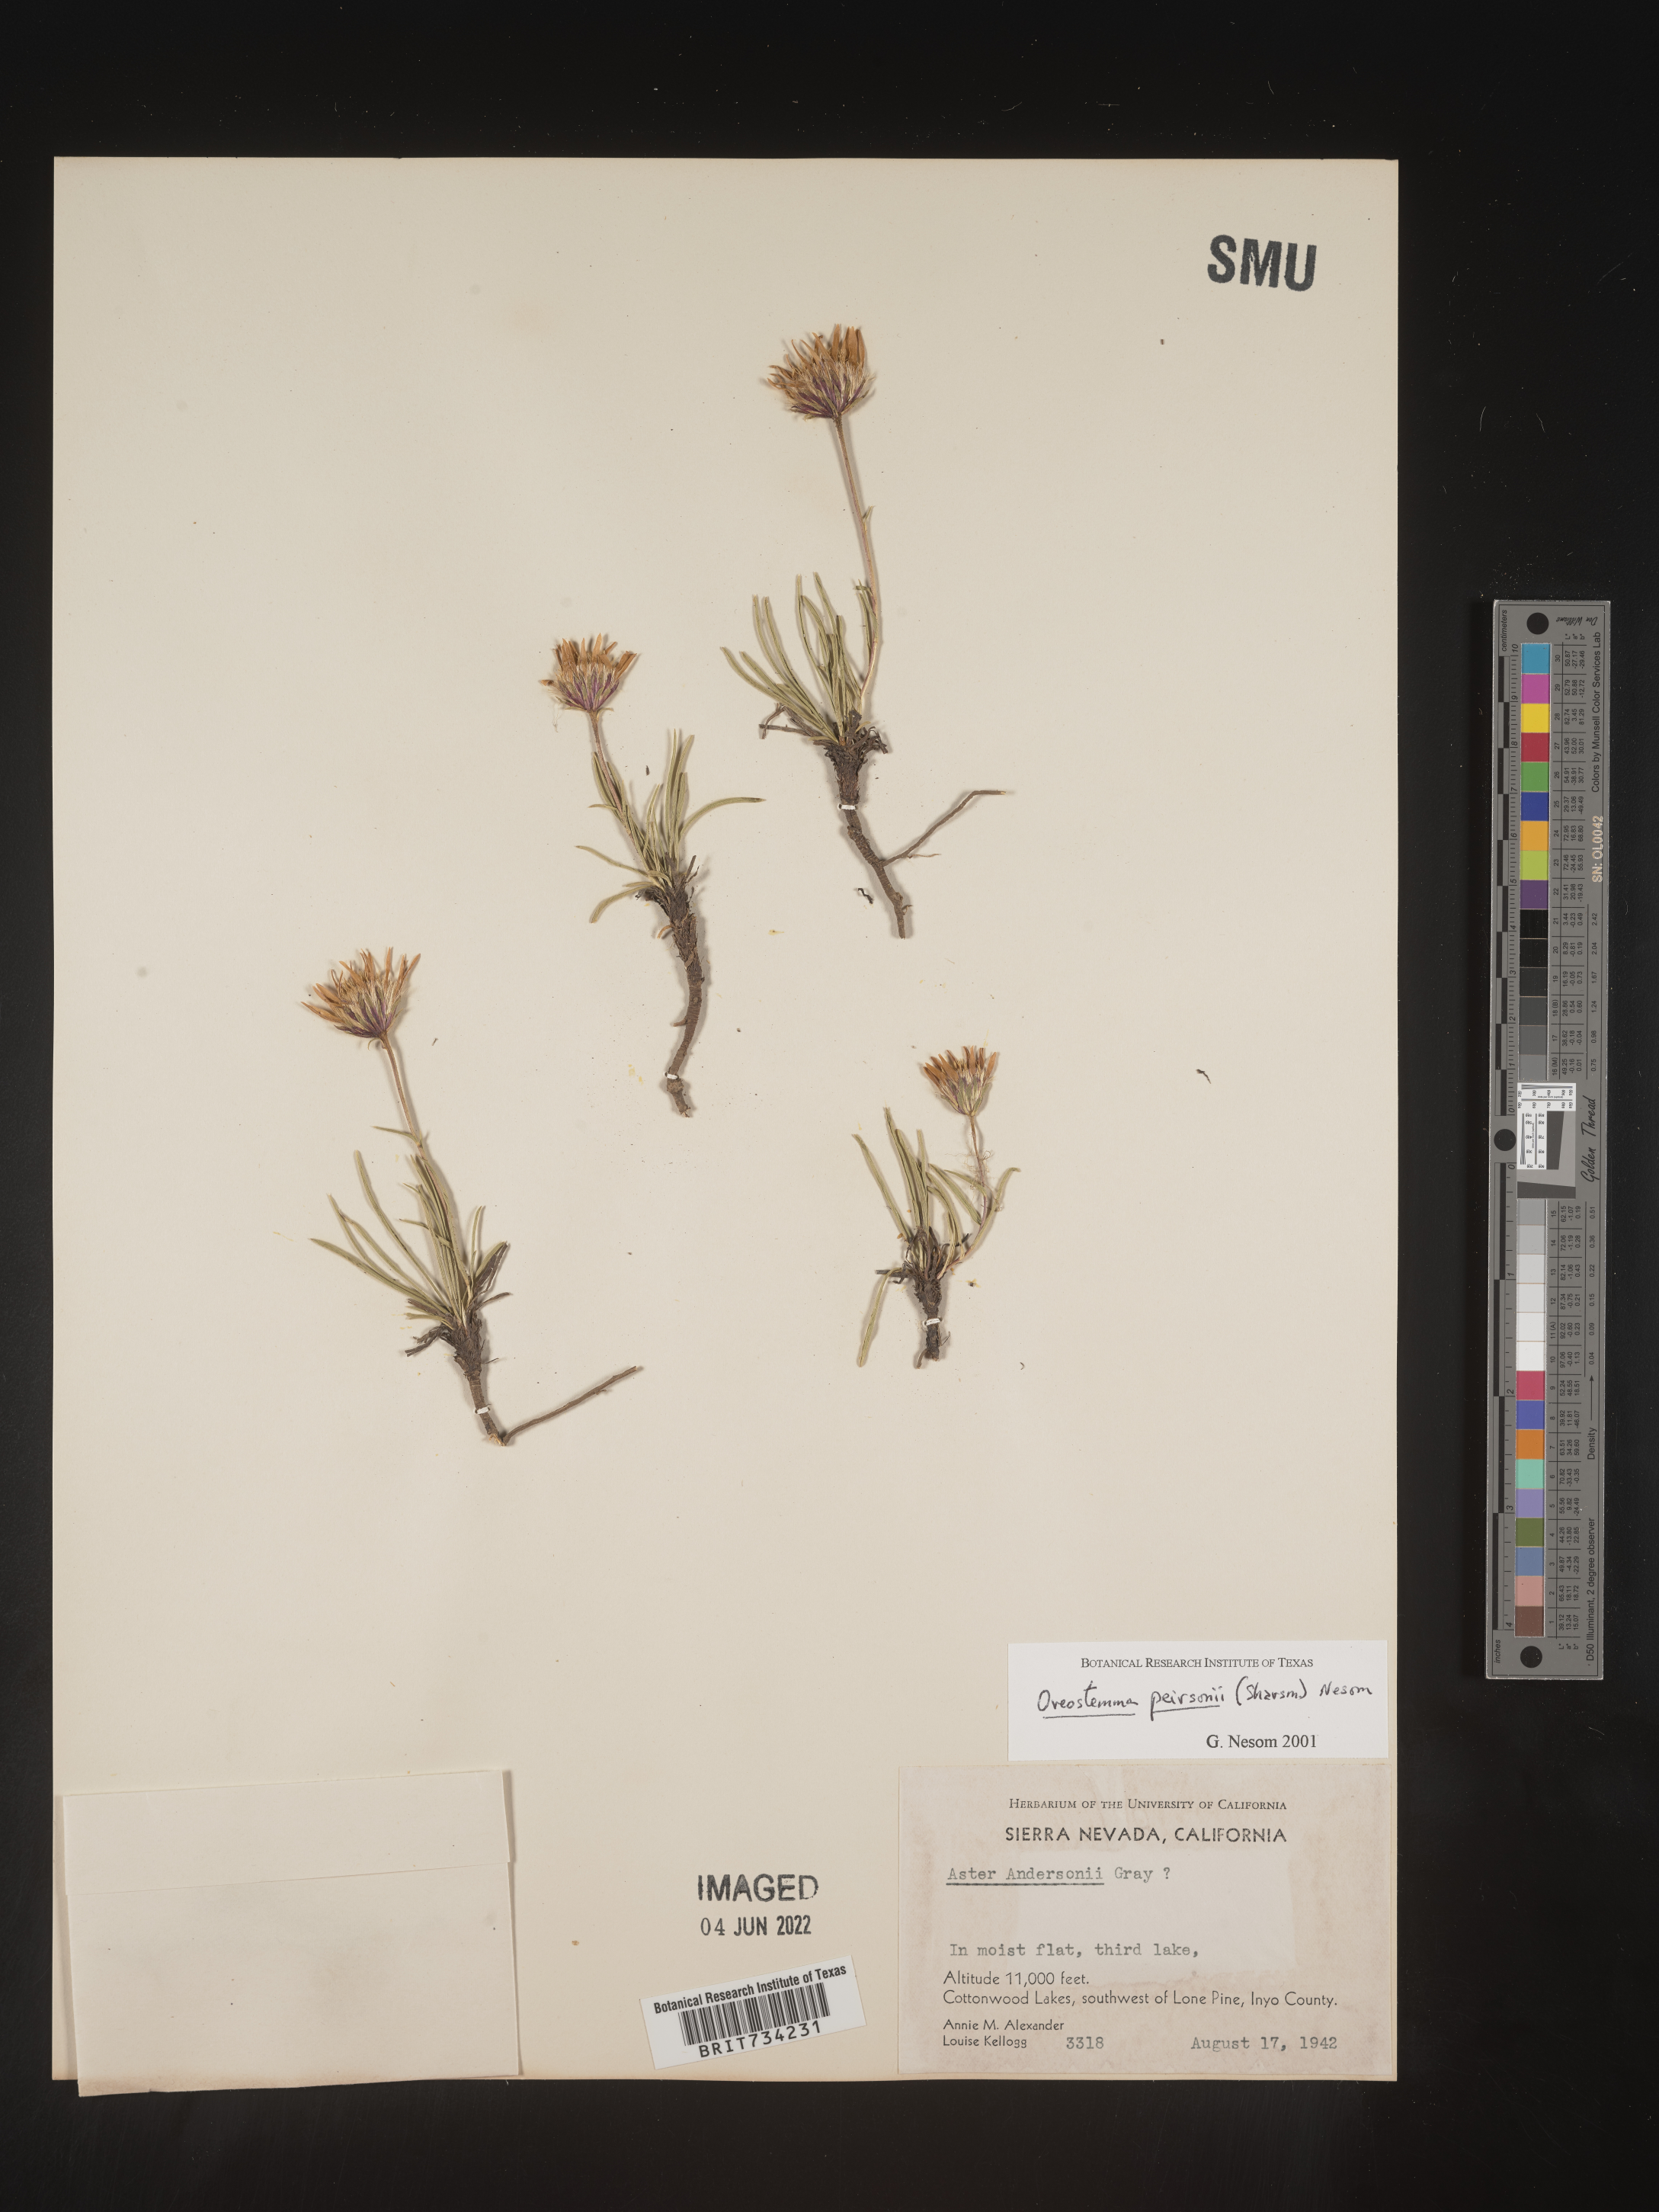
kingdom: Plantae
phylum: Tracheophyta
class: Magnoliopsida
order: Asterales
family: Asteraceae
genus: Oreostemma
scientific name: Oreostemma peirsonii
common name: Peirson's mountaincrown
